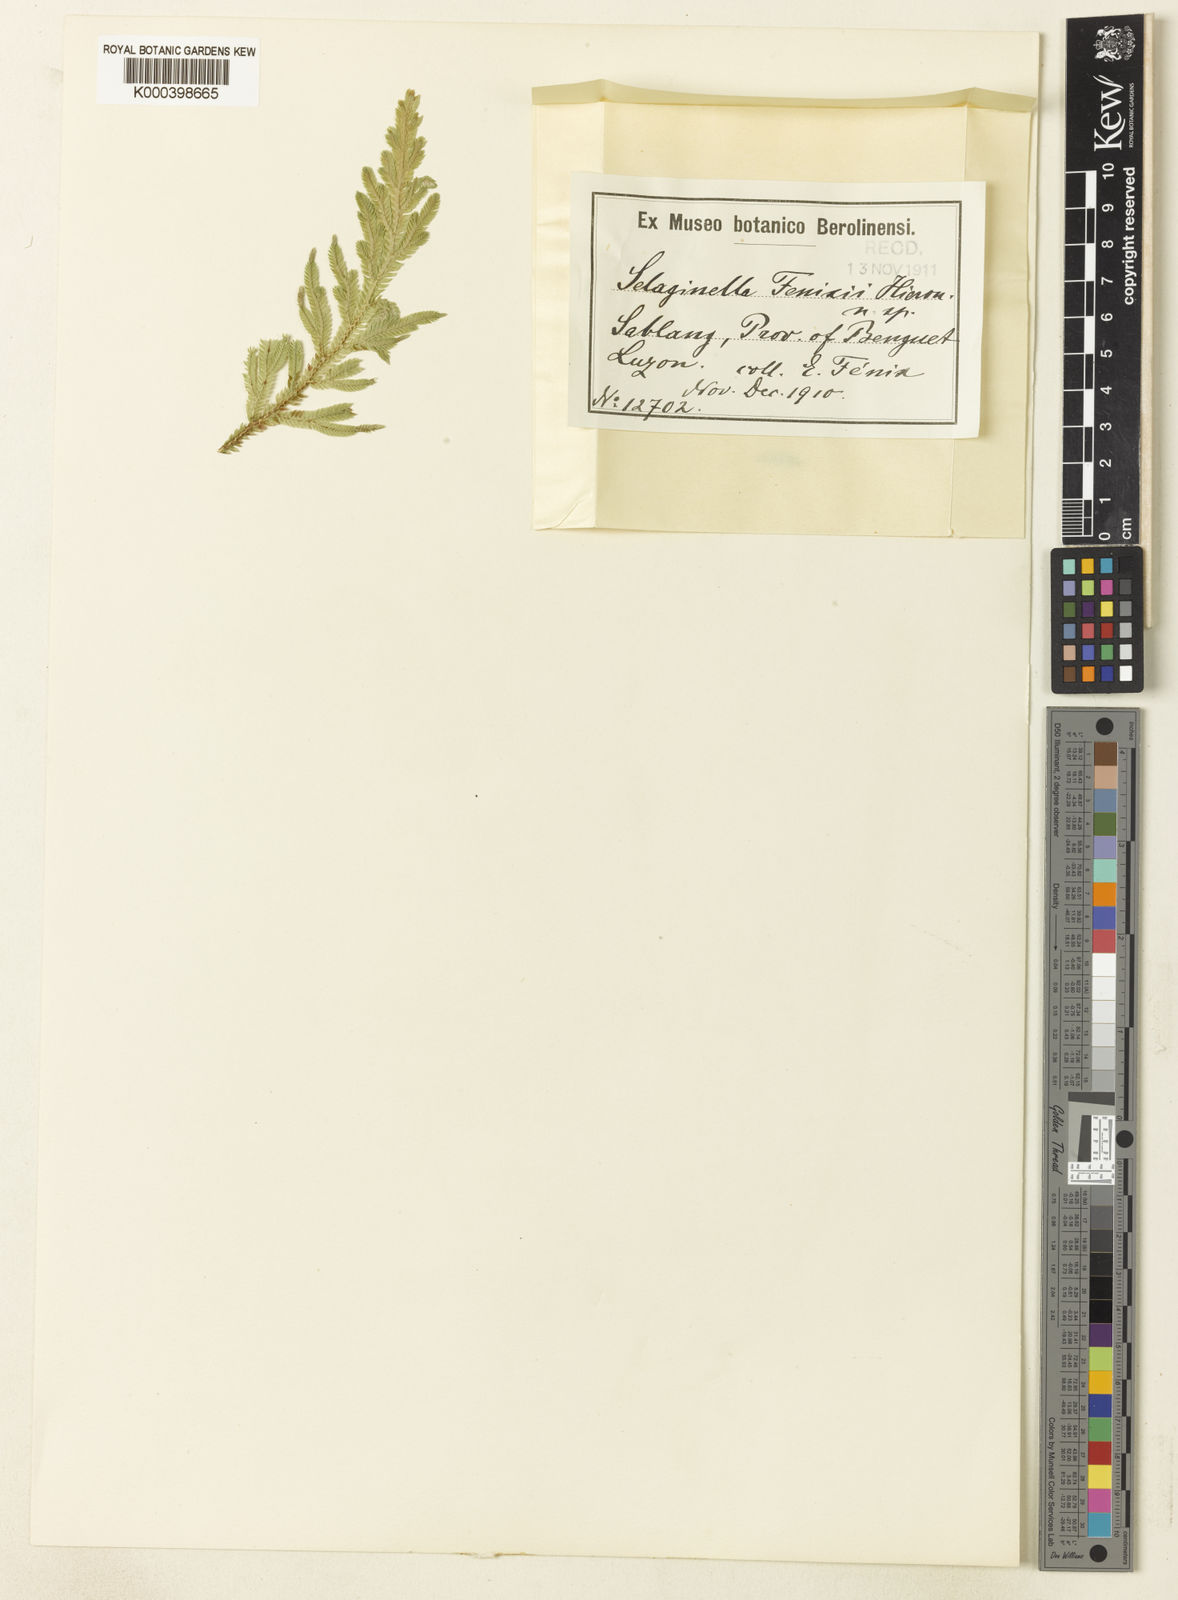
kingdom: Plantae
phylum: Tracheophyta
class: Lycopodiopsida
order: Selaginellales
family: Selaginellaceae
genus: Selaginella
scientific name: Selaginella fenixii
